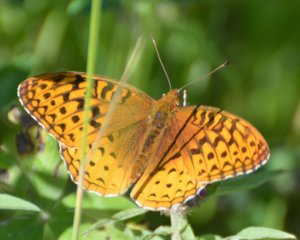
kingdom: Animalia
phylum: Arthropoda
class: Insecta
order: Lepidoptera
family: Nymphalidae
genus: Speyeria
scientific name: Speyeria cybele
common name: Great Spangled Fritillary
